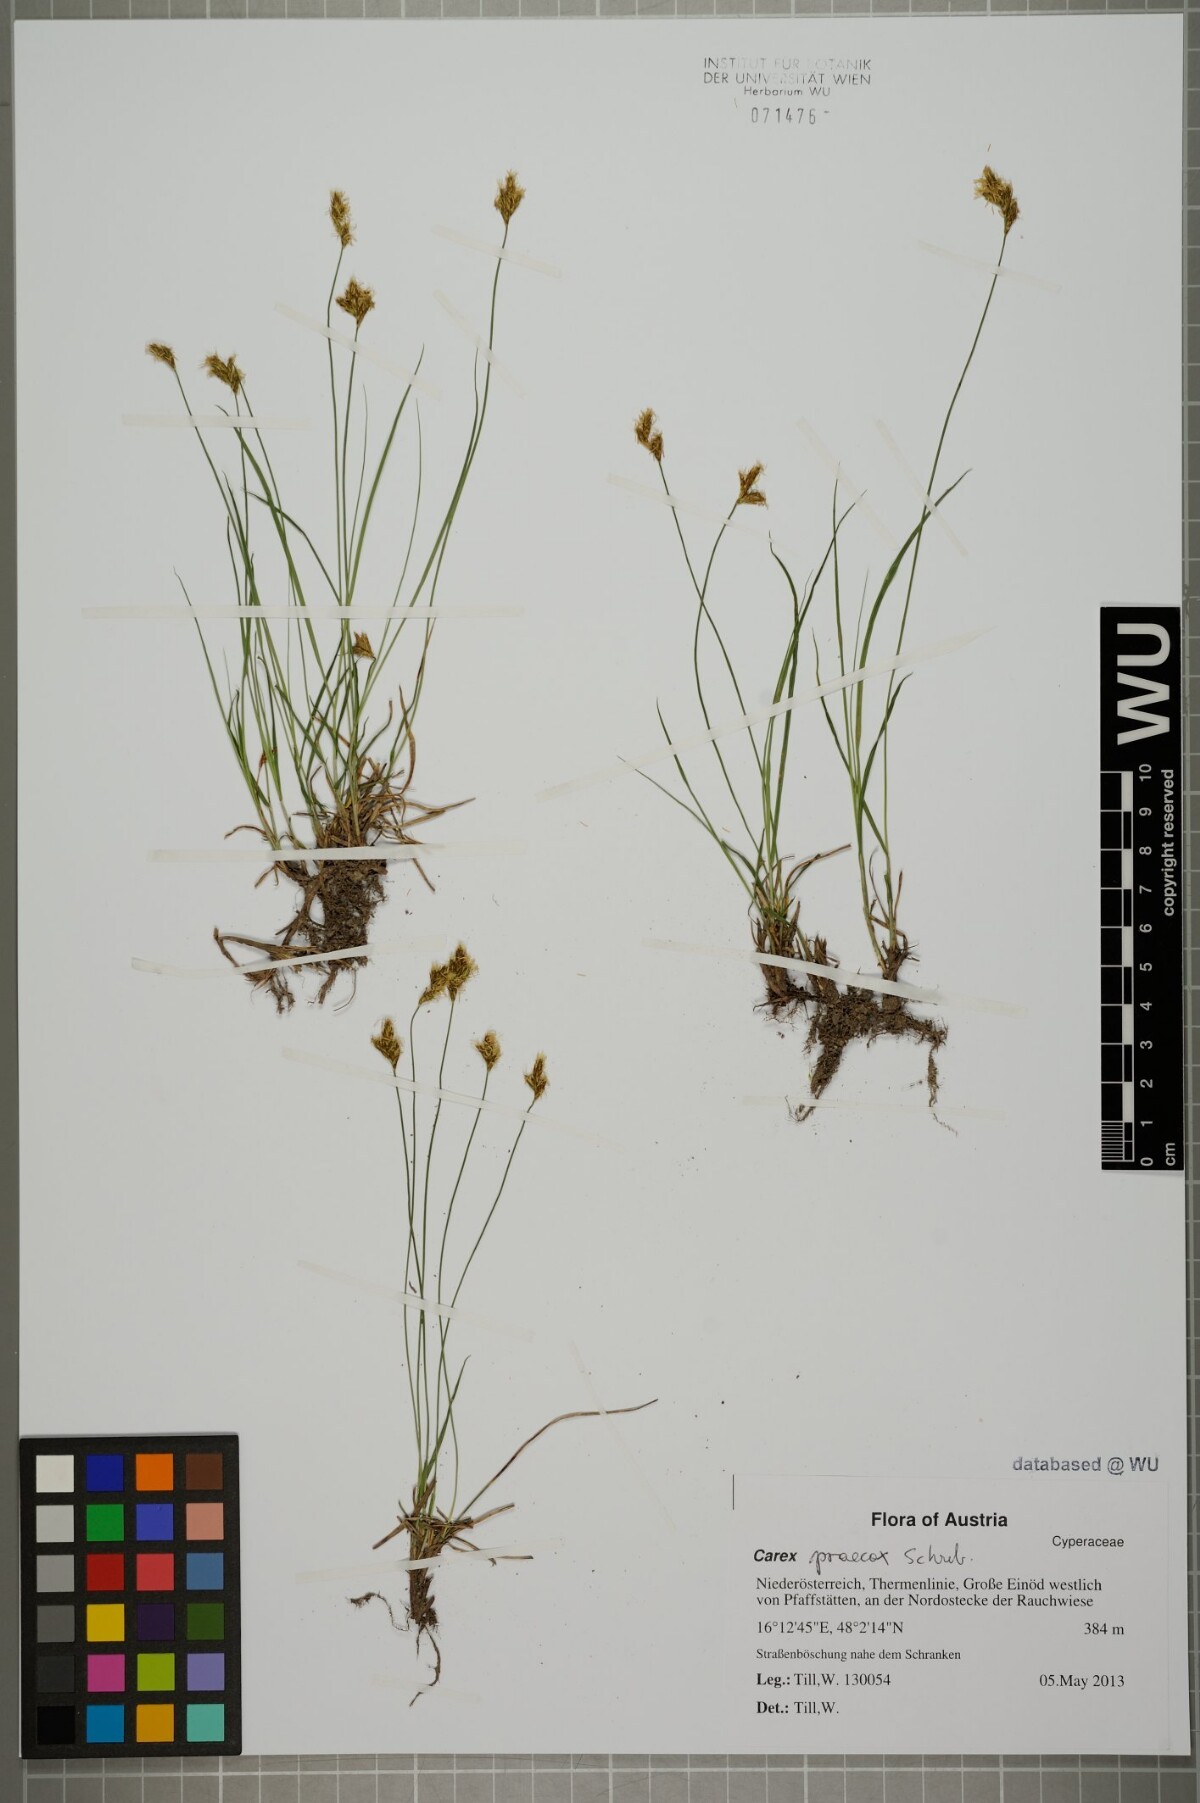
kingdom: Plantae
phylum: Tracheophyta
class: Liliopsida
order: Poales
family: Cyperaceae
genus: Carex
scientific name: Carex praecox
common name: Early sedge
